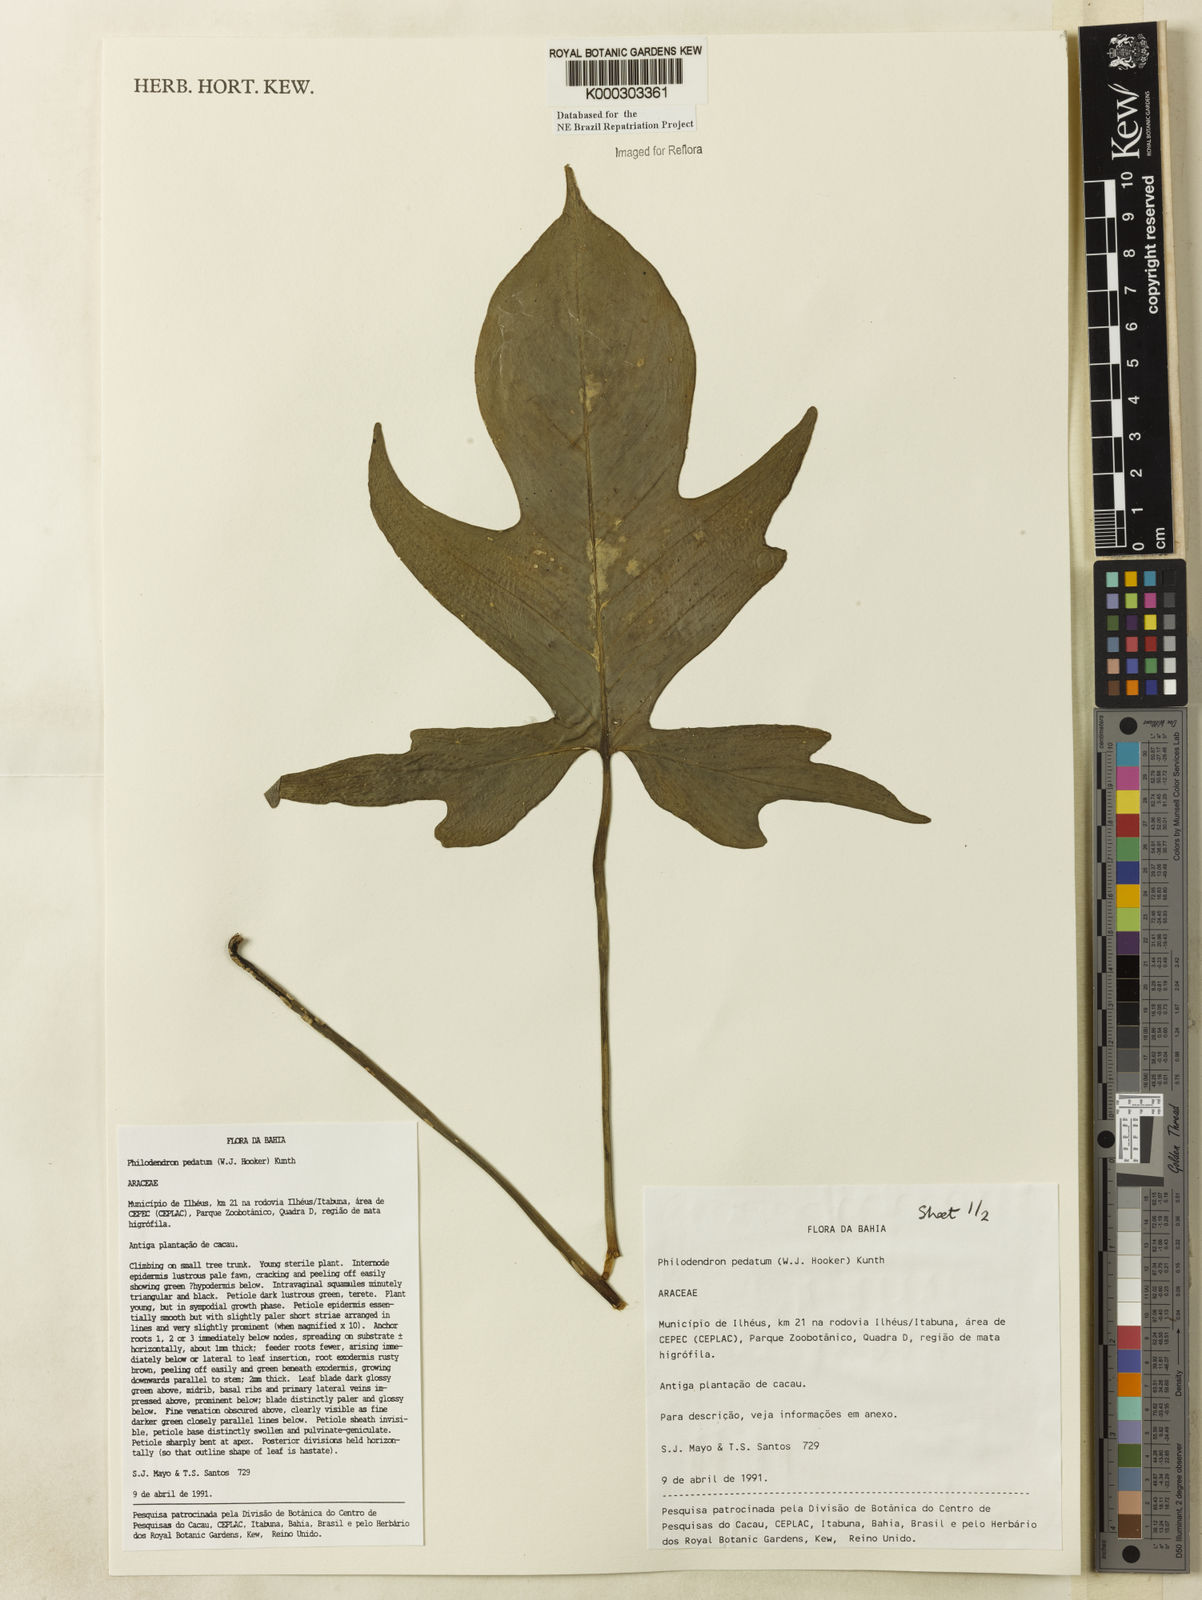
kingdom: Plantae
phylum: Tracheophyta
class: Liliopsida
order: Alismatales
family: Araceae
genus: Philodendron
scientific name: Philodendron pedatum
